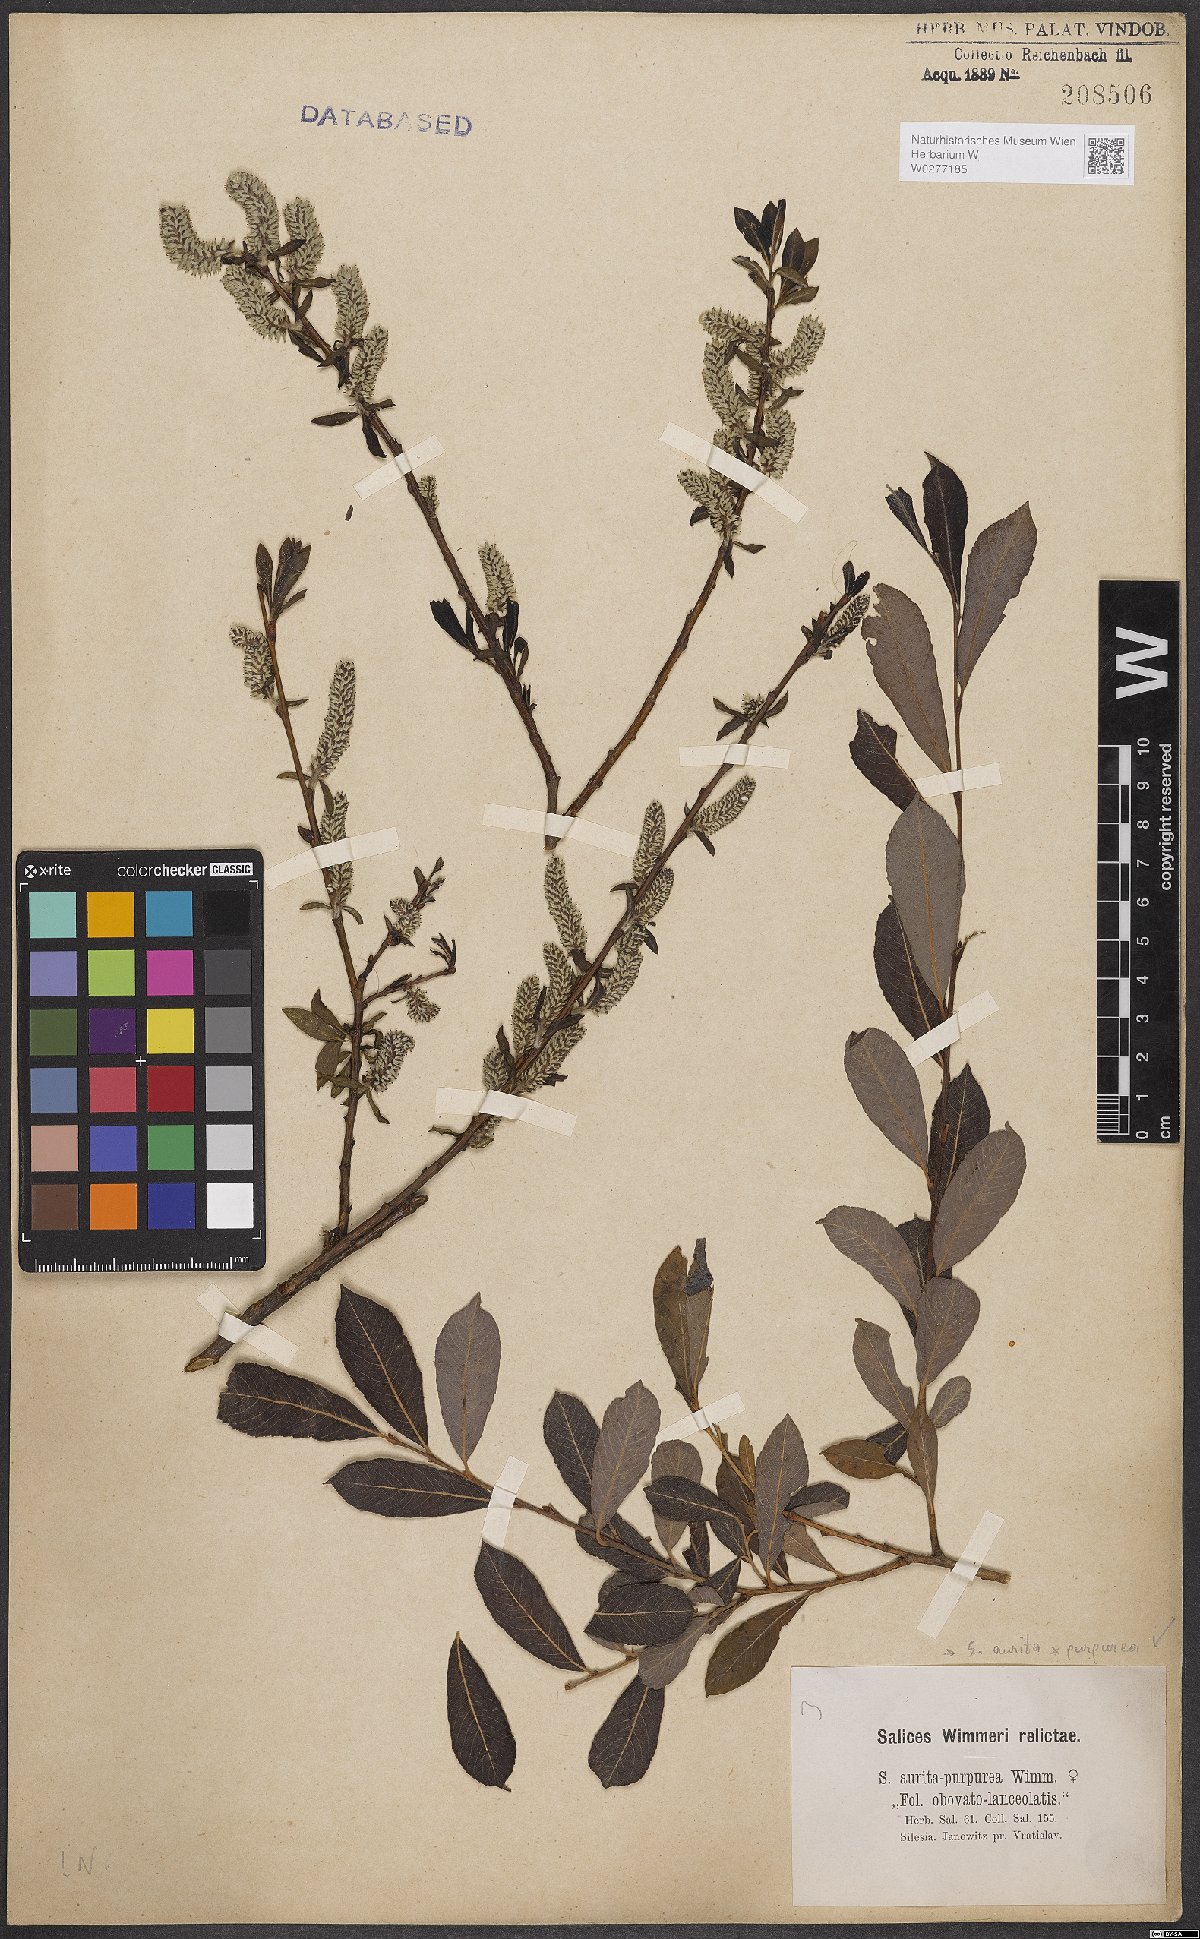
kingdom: Plantae
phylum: Tracheophyta
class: Magnoliopsida
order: Malpighiales
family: Salicaceae
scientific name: Salicaceae
